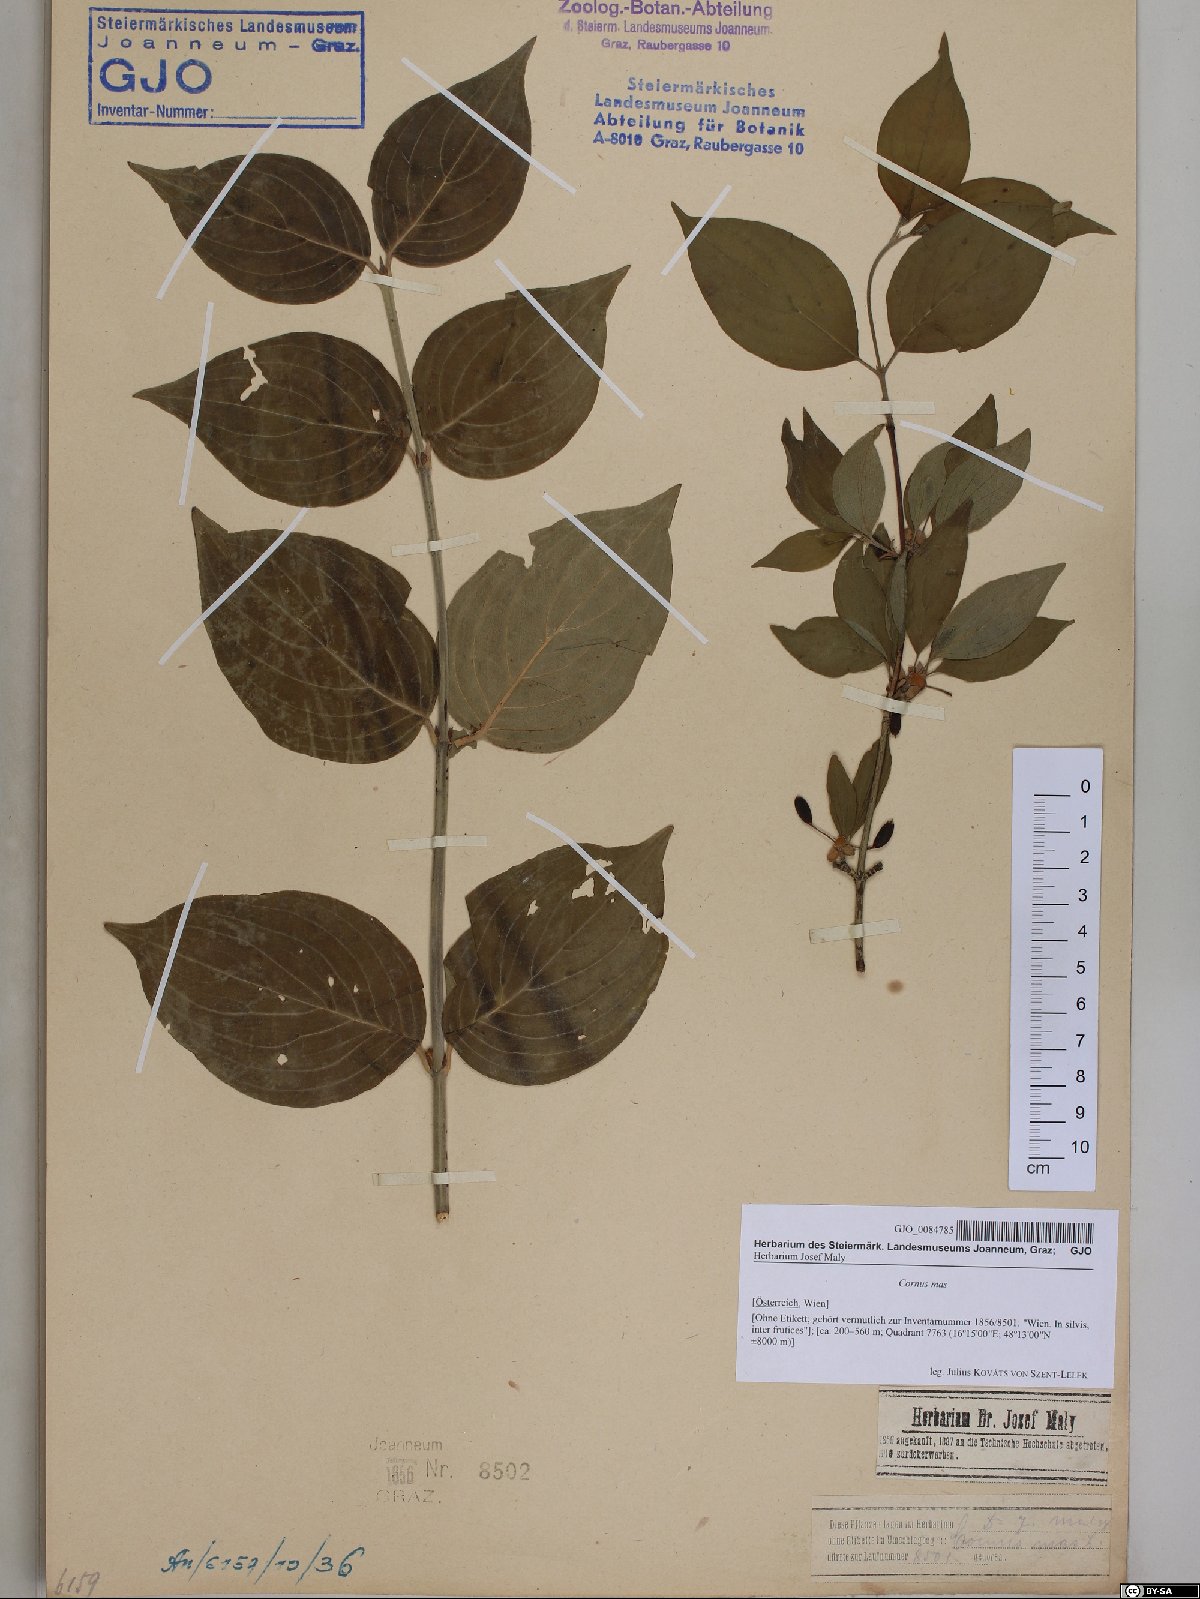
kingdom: Plantae
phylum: Tracheophyta
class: Magnoliopsida
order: Cornales
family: Cornaceae
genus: Cornus
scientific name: Cornus mas
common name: Cornelian-cherry
